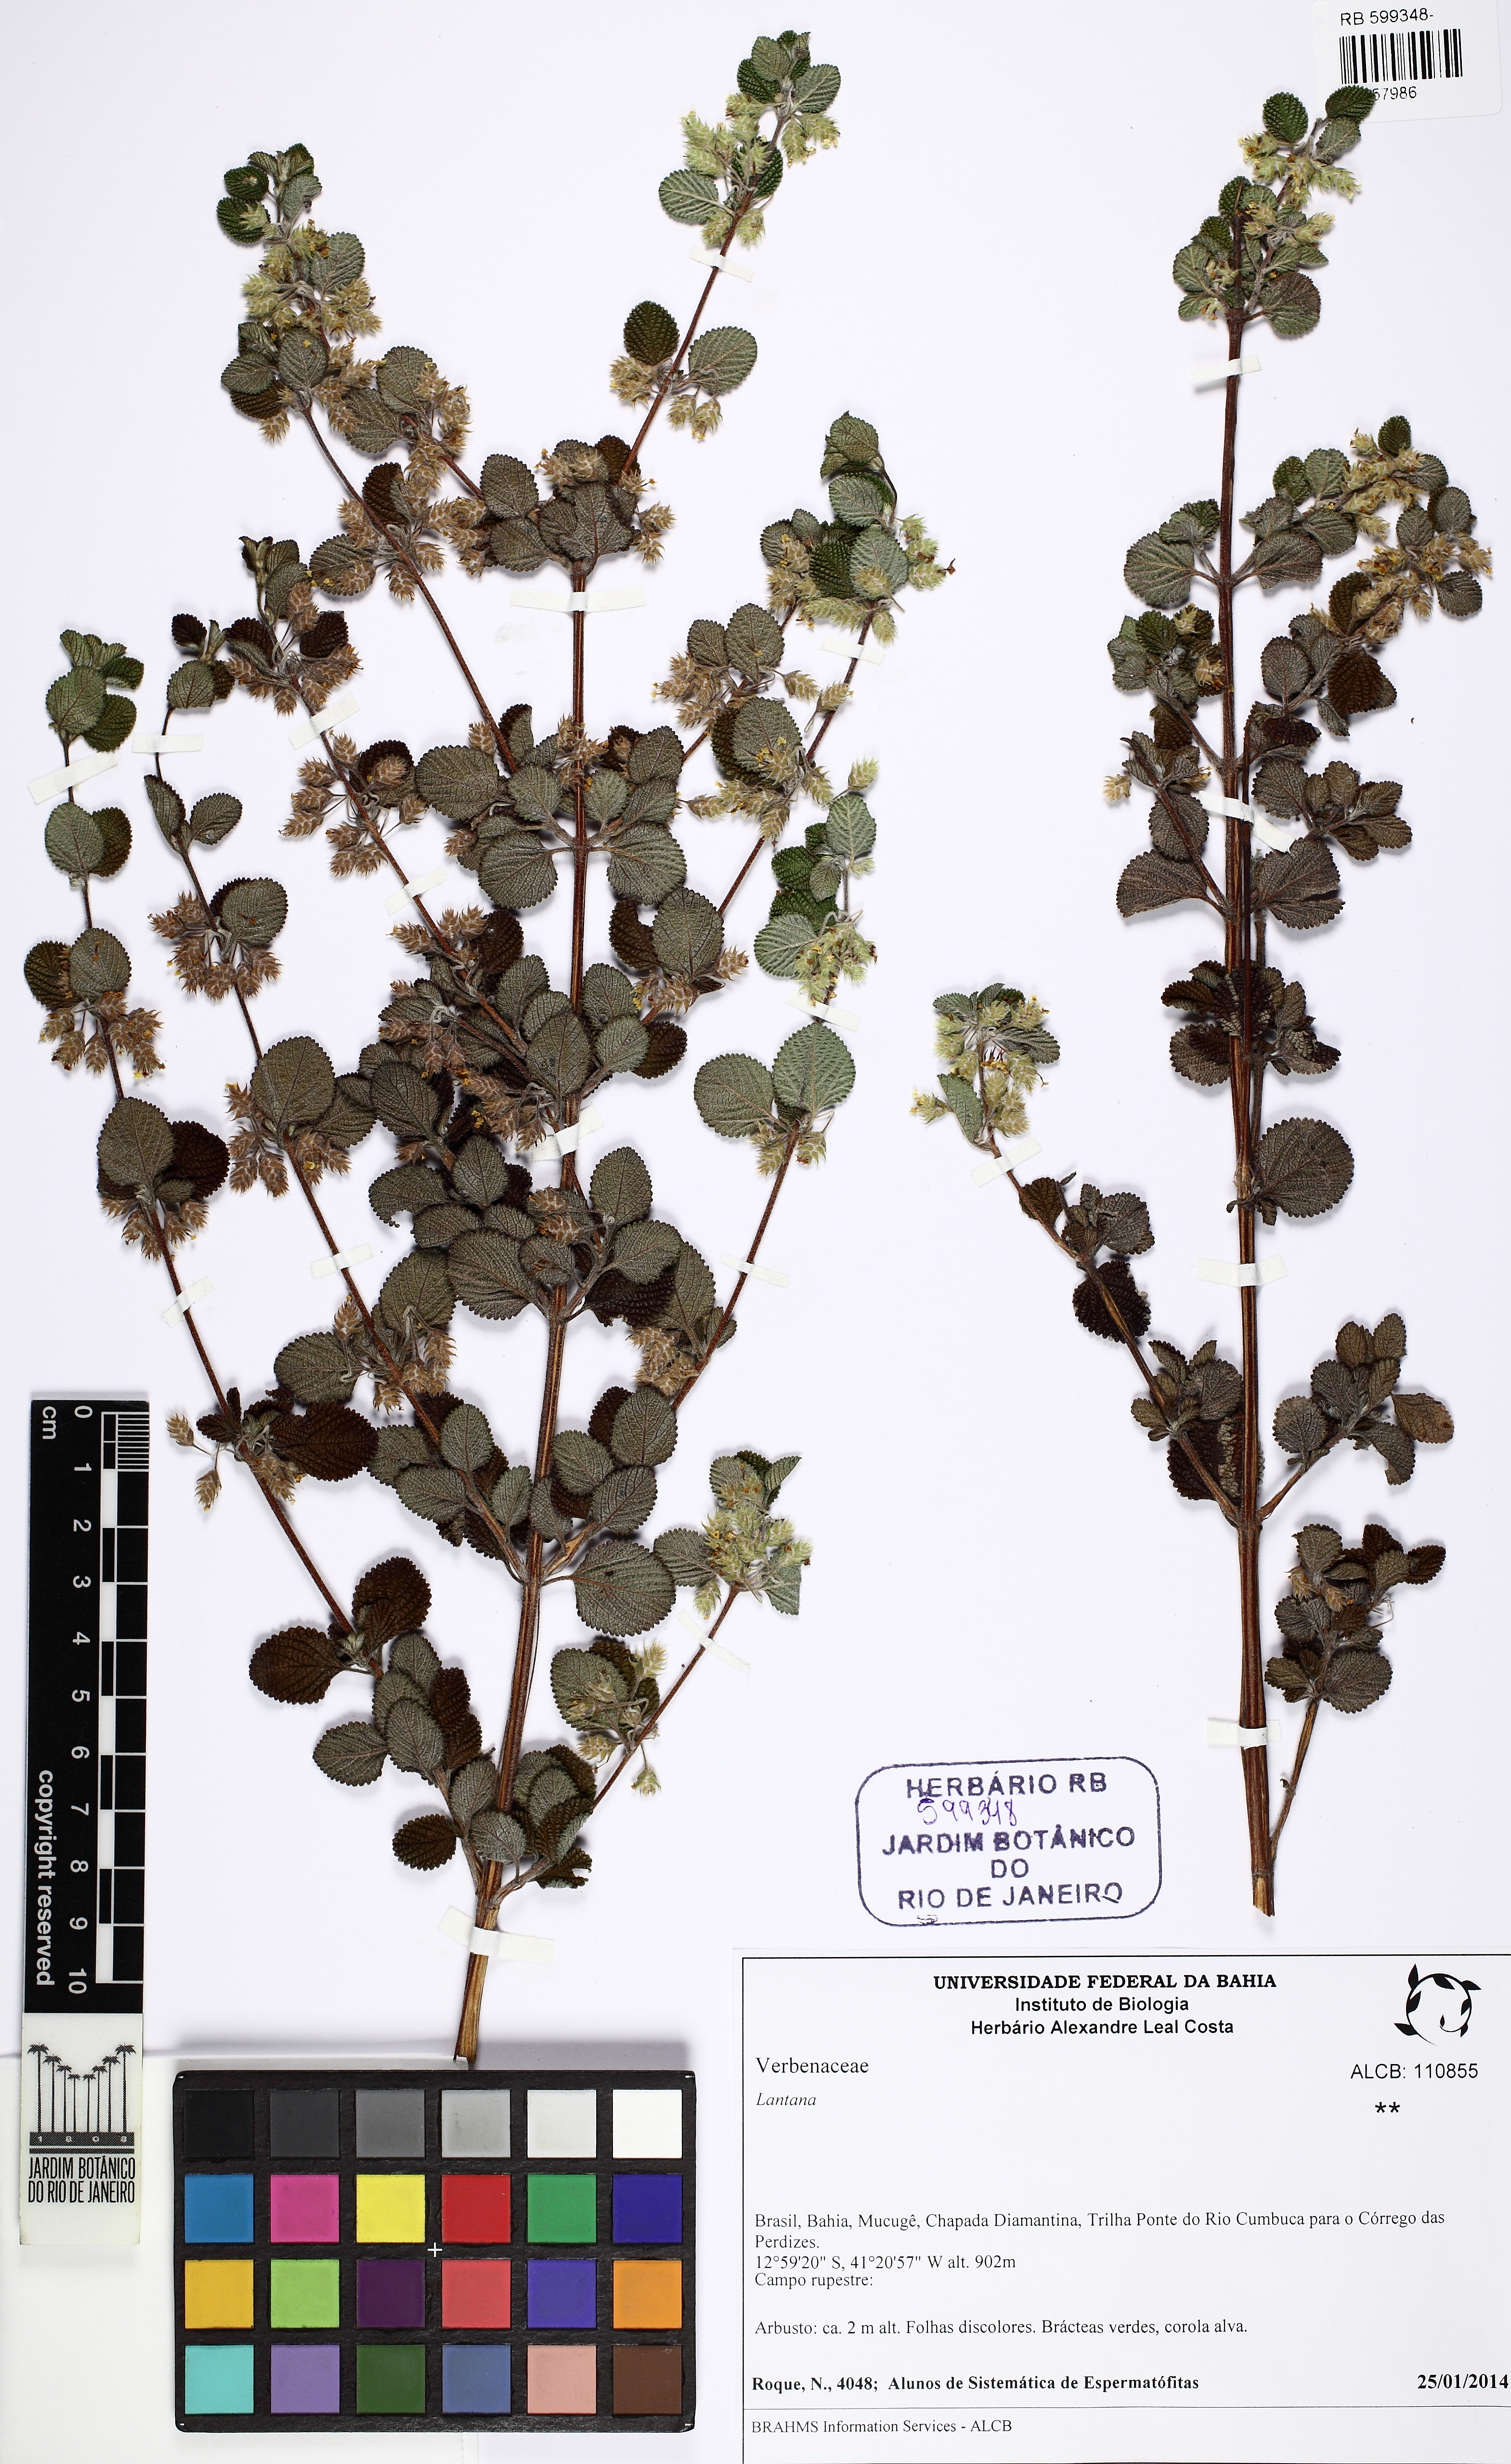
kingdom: Plantae
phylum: Tracheophyta
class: Magnoliopsida
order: Lamiales
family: Verbenaceae
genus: Lantana
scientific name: Lantana
